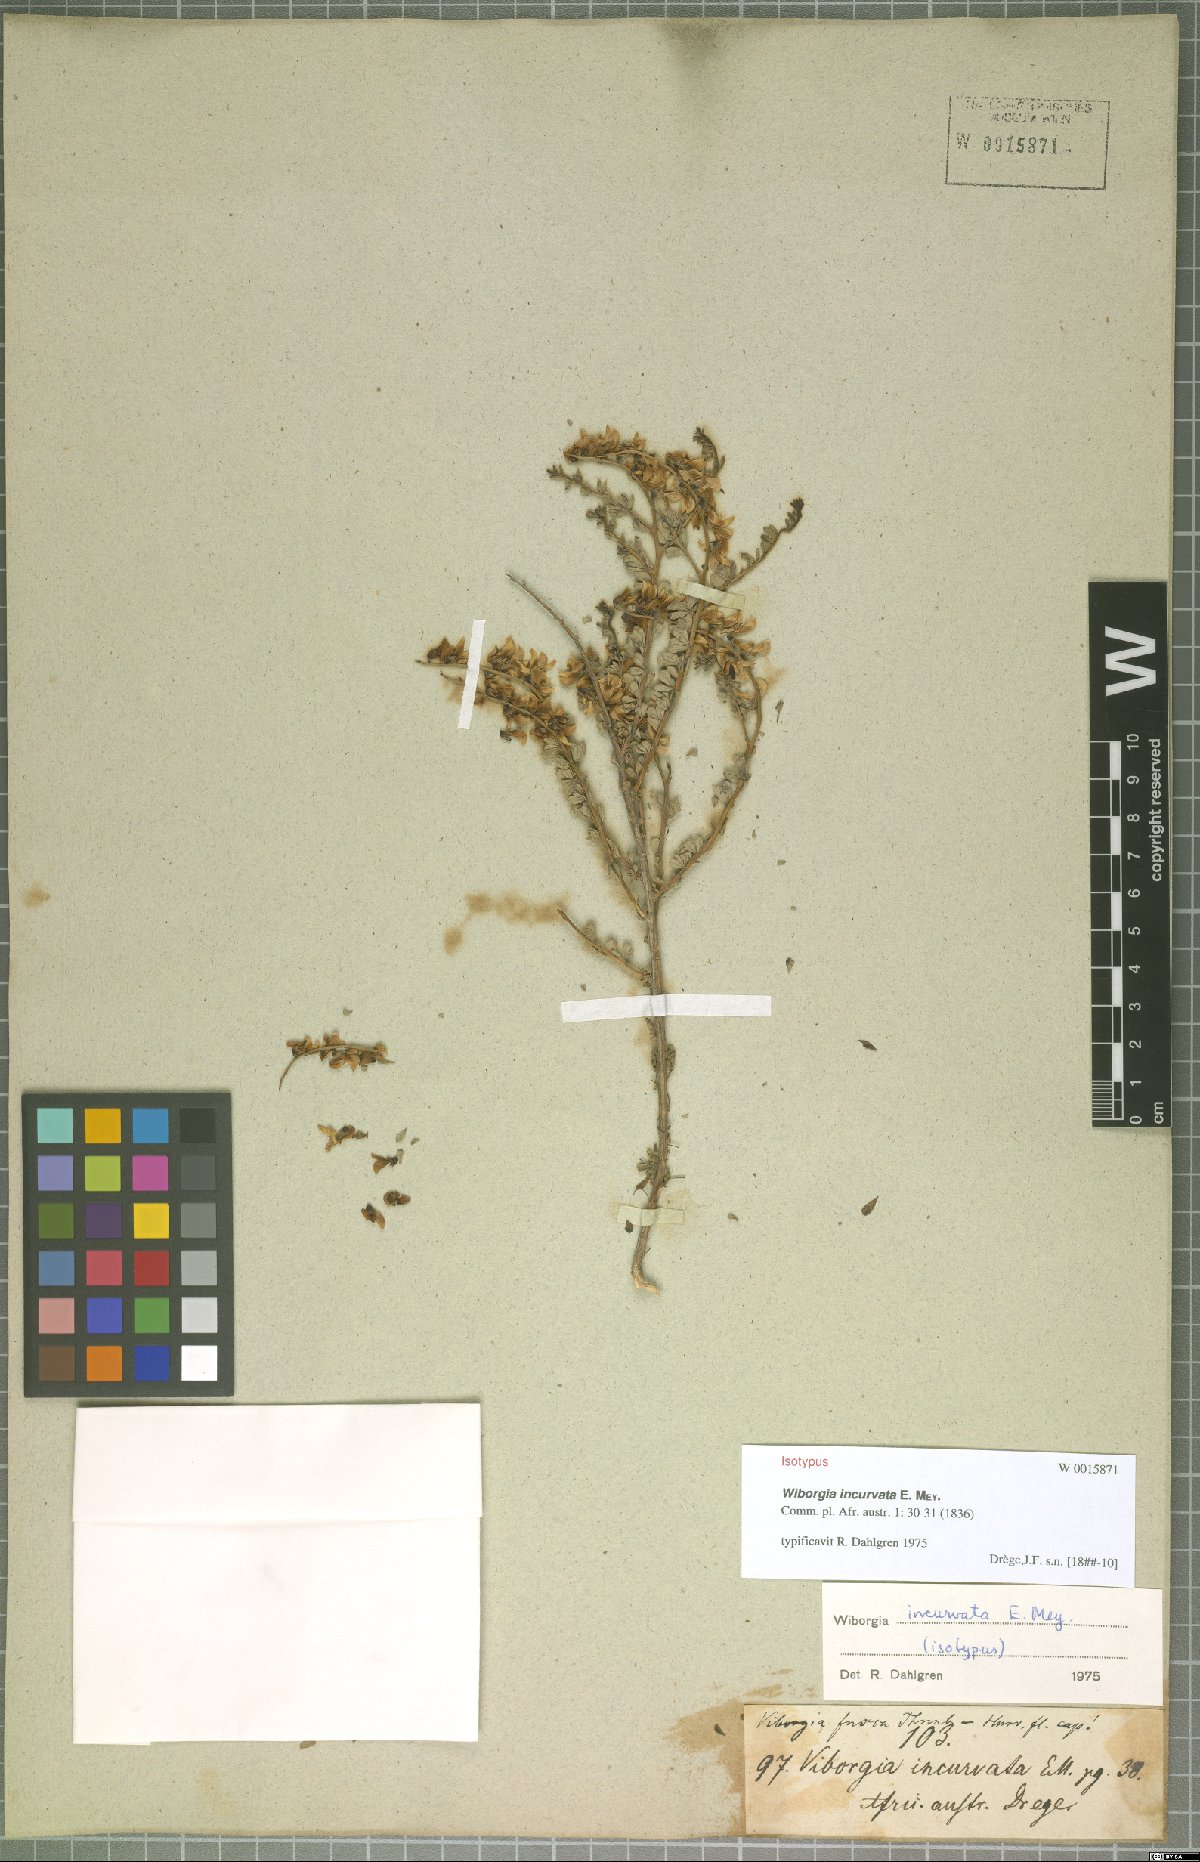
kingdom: Plantae
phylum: Tracheophyta
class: Magnoliopsida
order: Fabales
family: Fabaceae
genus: Wiborgia
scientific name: Wiborgia incurvata
